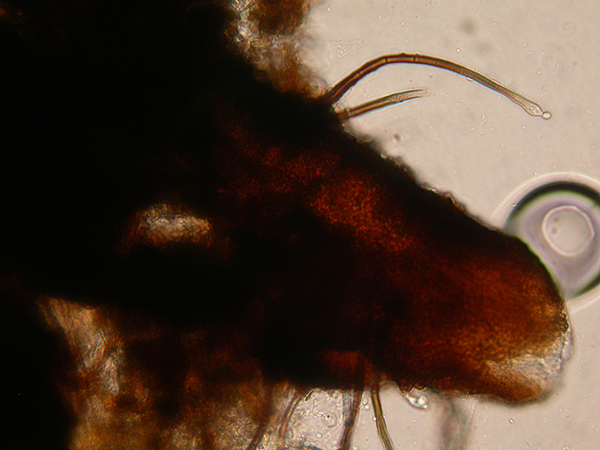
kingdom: Fungi
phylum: Ascomycota
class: Sordariomycetes
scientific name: Sordariomycetes
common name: kernesvampklassen
